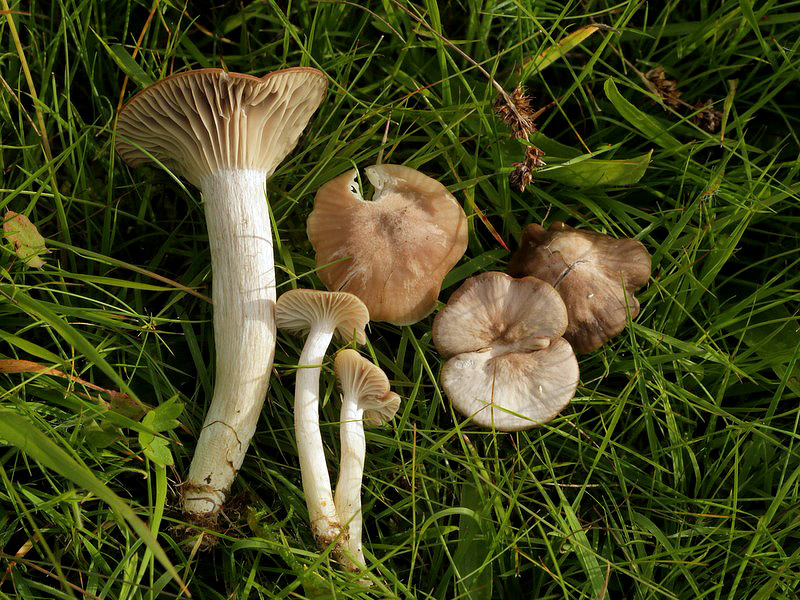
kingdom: Fungi
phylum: Basidiomycota
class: Agaricomycetes
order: Agaricales
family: Hygrophoraceae
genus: Cuphophyllus
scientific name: Cuphophyllus flavipes
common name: gulfodet vokshat
